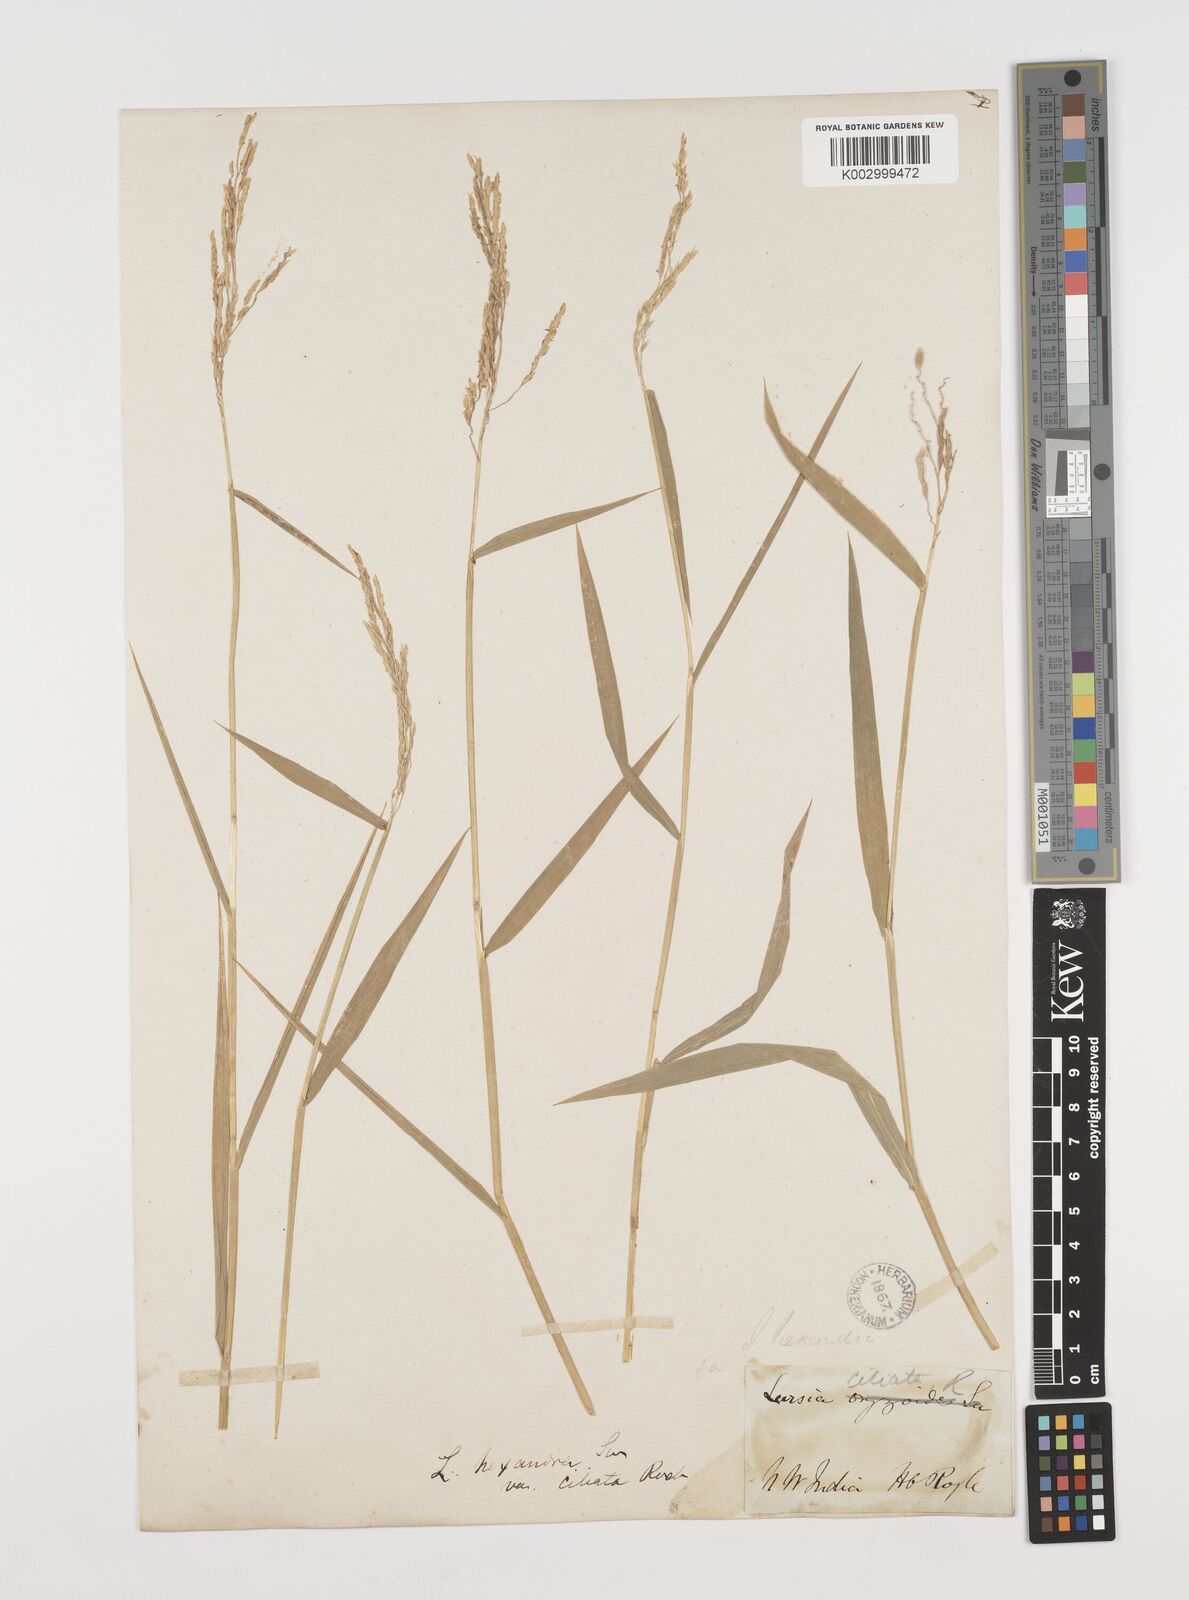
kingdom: Plantae
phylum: Tracheophyta
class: Liliopsida
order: Poales
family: Poaceae
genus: Leersia
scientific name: Leersia hexandra
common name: Southern cut grass
